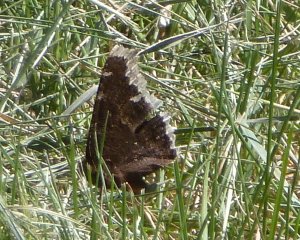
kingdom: Animalia
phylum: Arthropoda
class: Insecta
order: Lepidoptera
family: Nymphalidae
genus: Nymphalis
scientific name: Nymphalis antiopa
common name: Mourning Cloak
